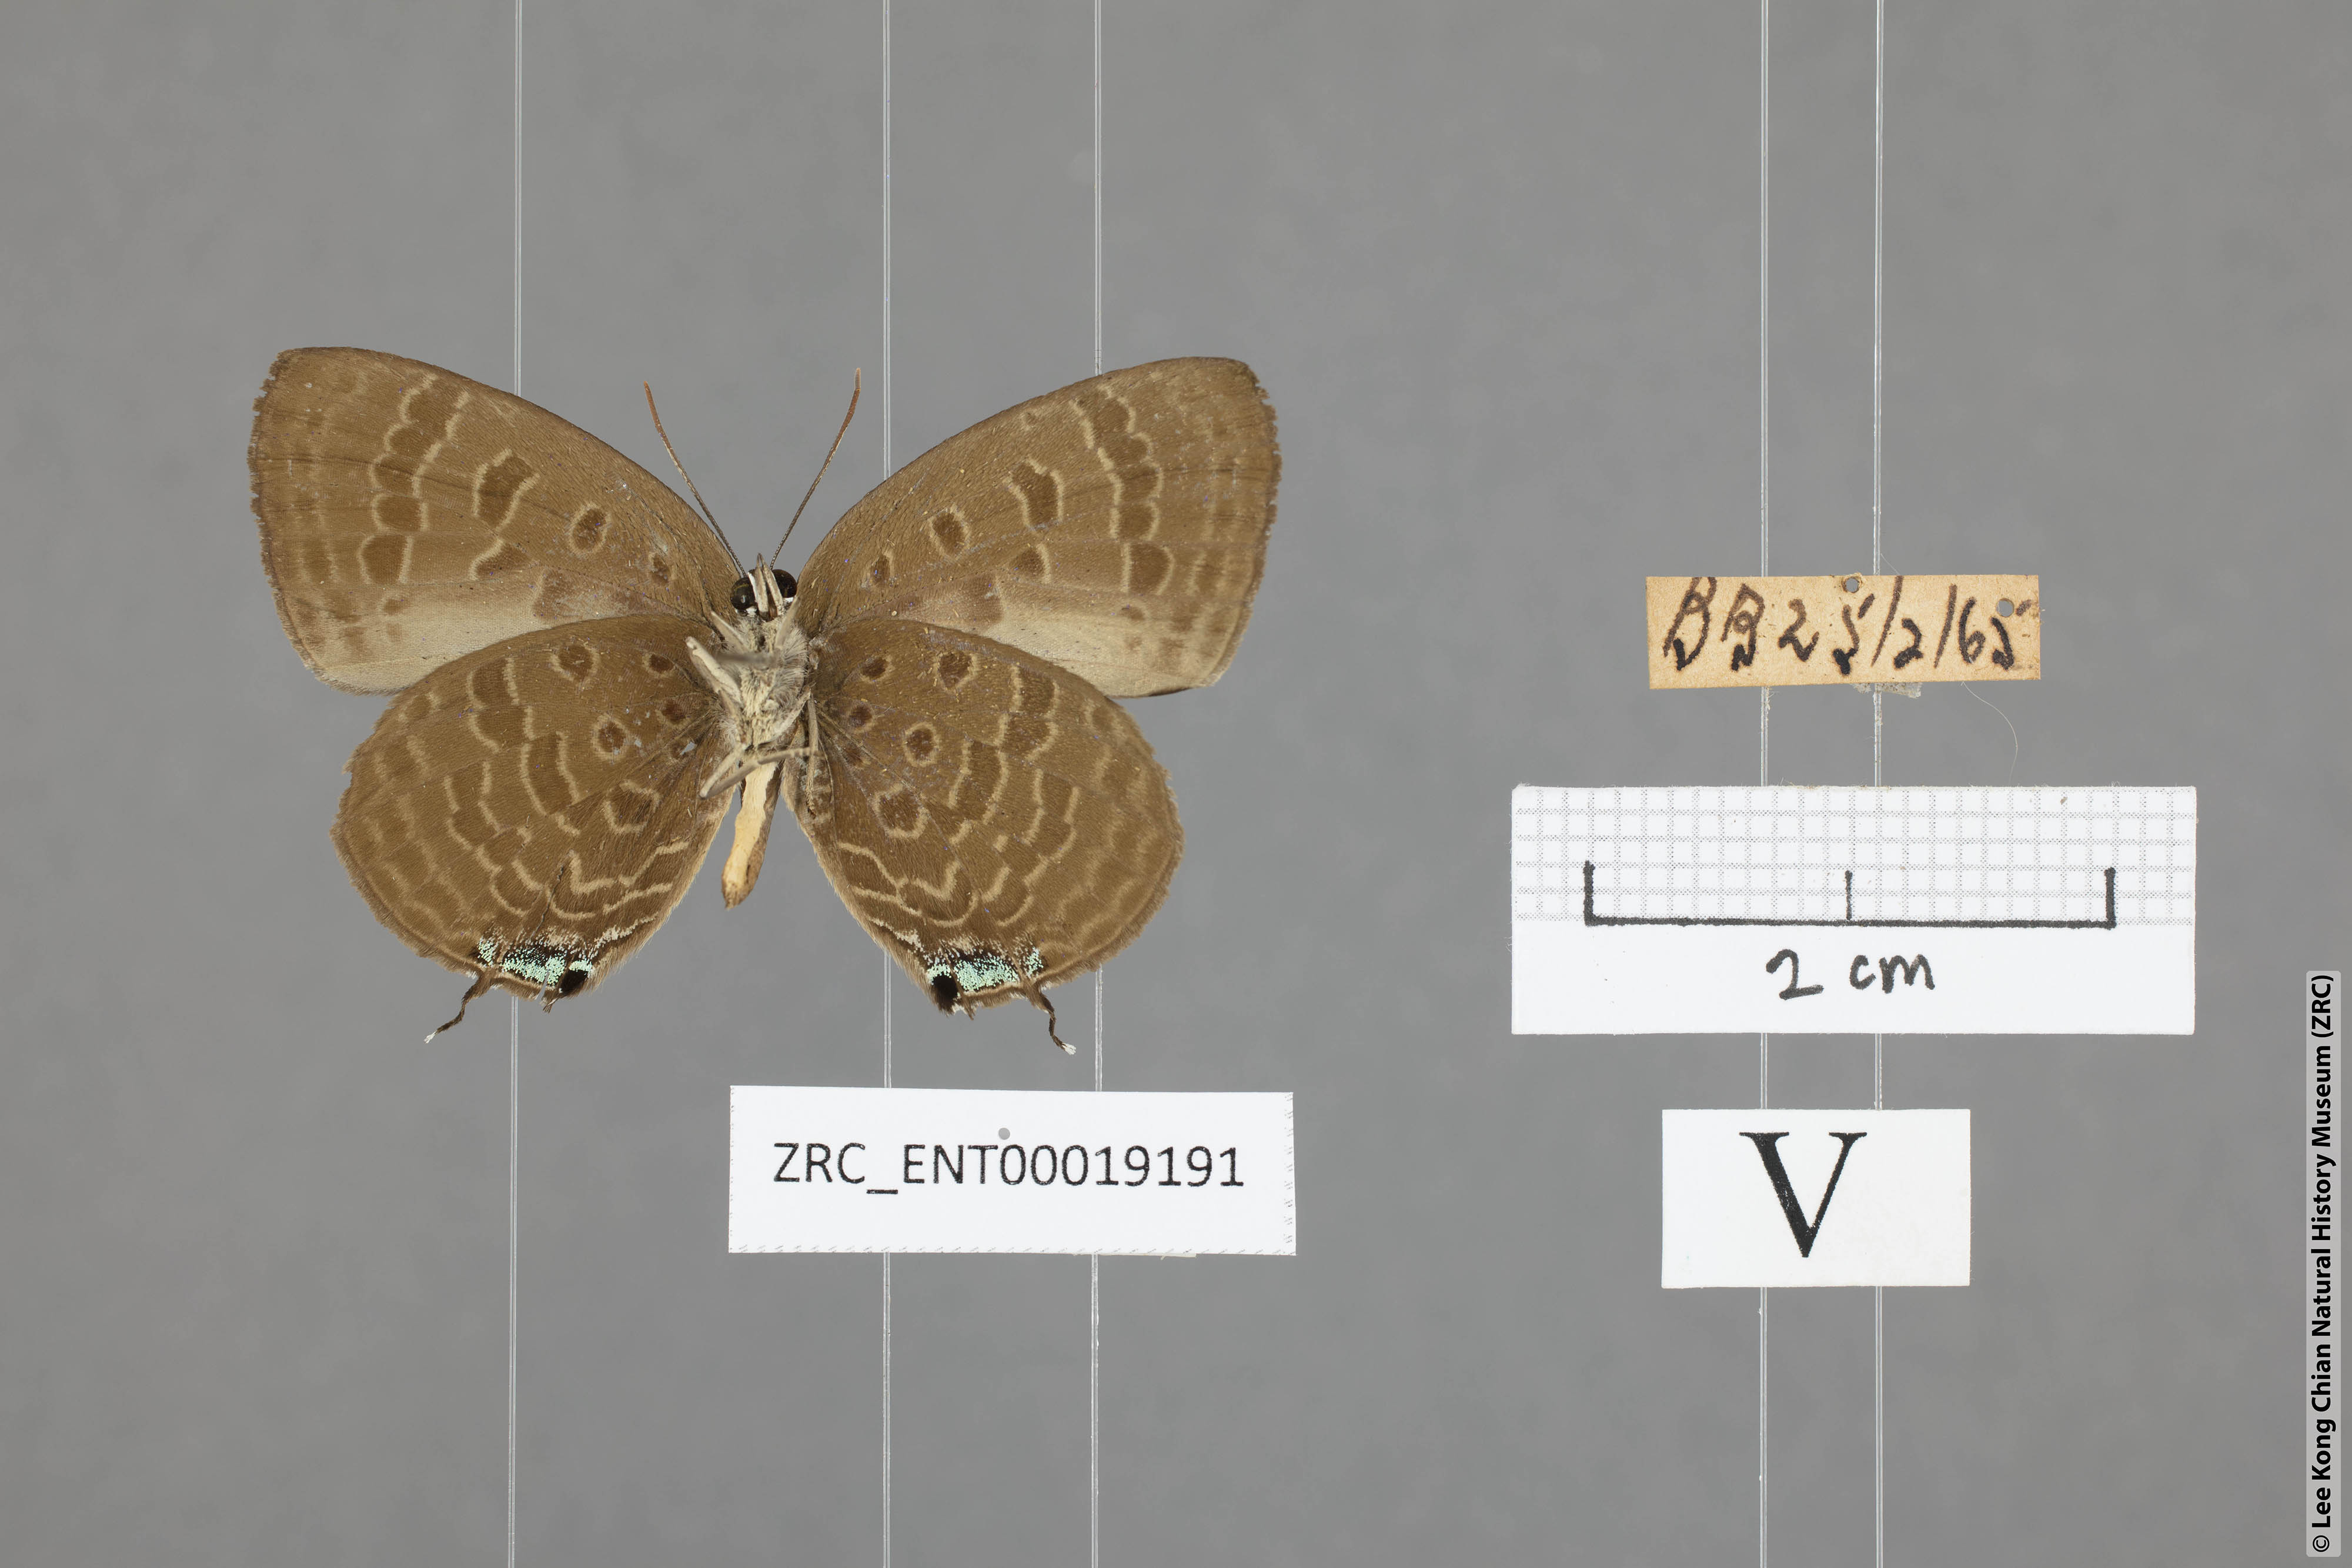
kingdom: Animalia
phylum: Arthropoda
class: Insecta
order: Lepidoptera
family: Lycaenidae
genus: Arhopala
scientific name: Arhopala aroa
